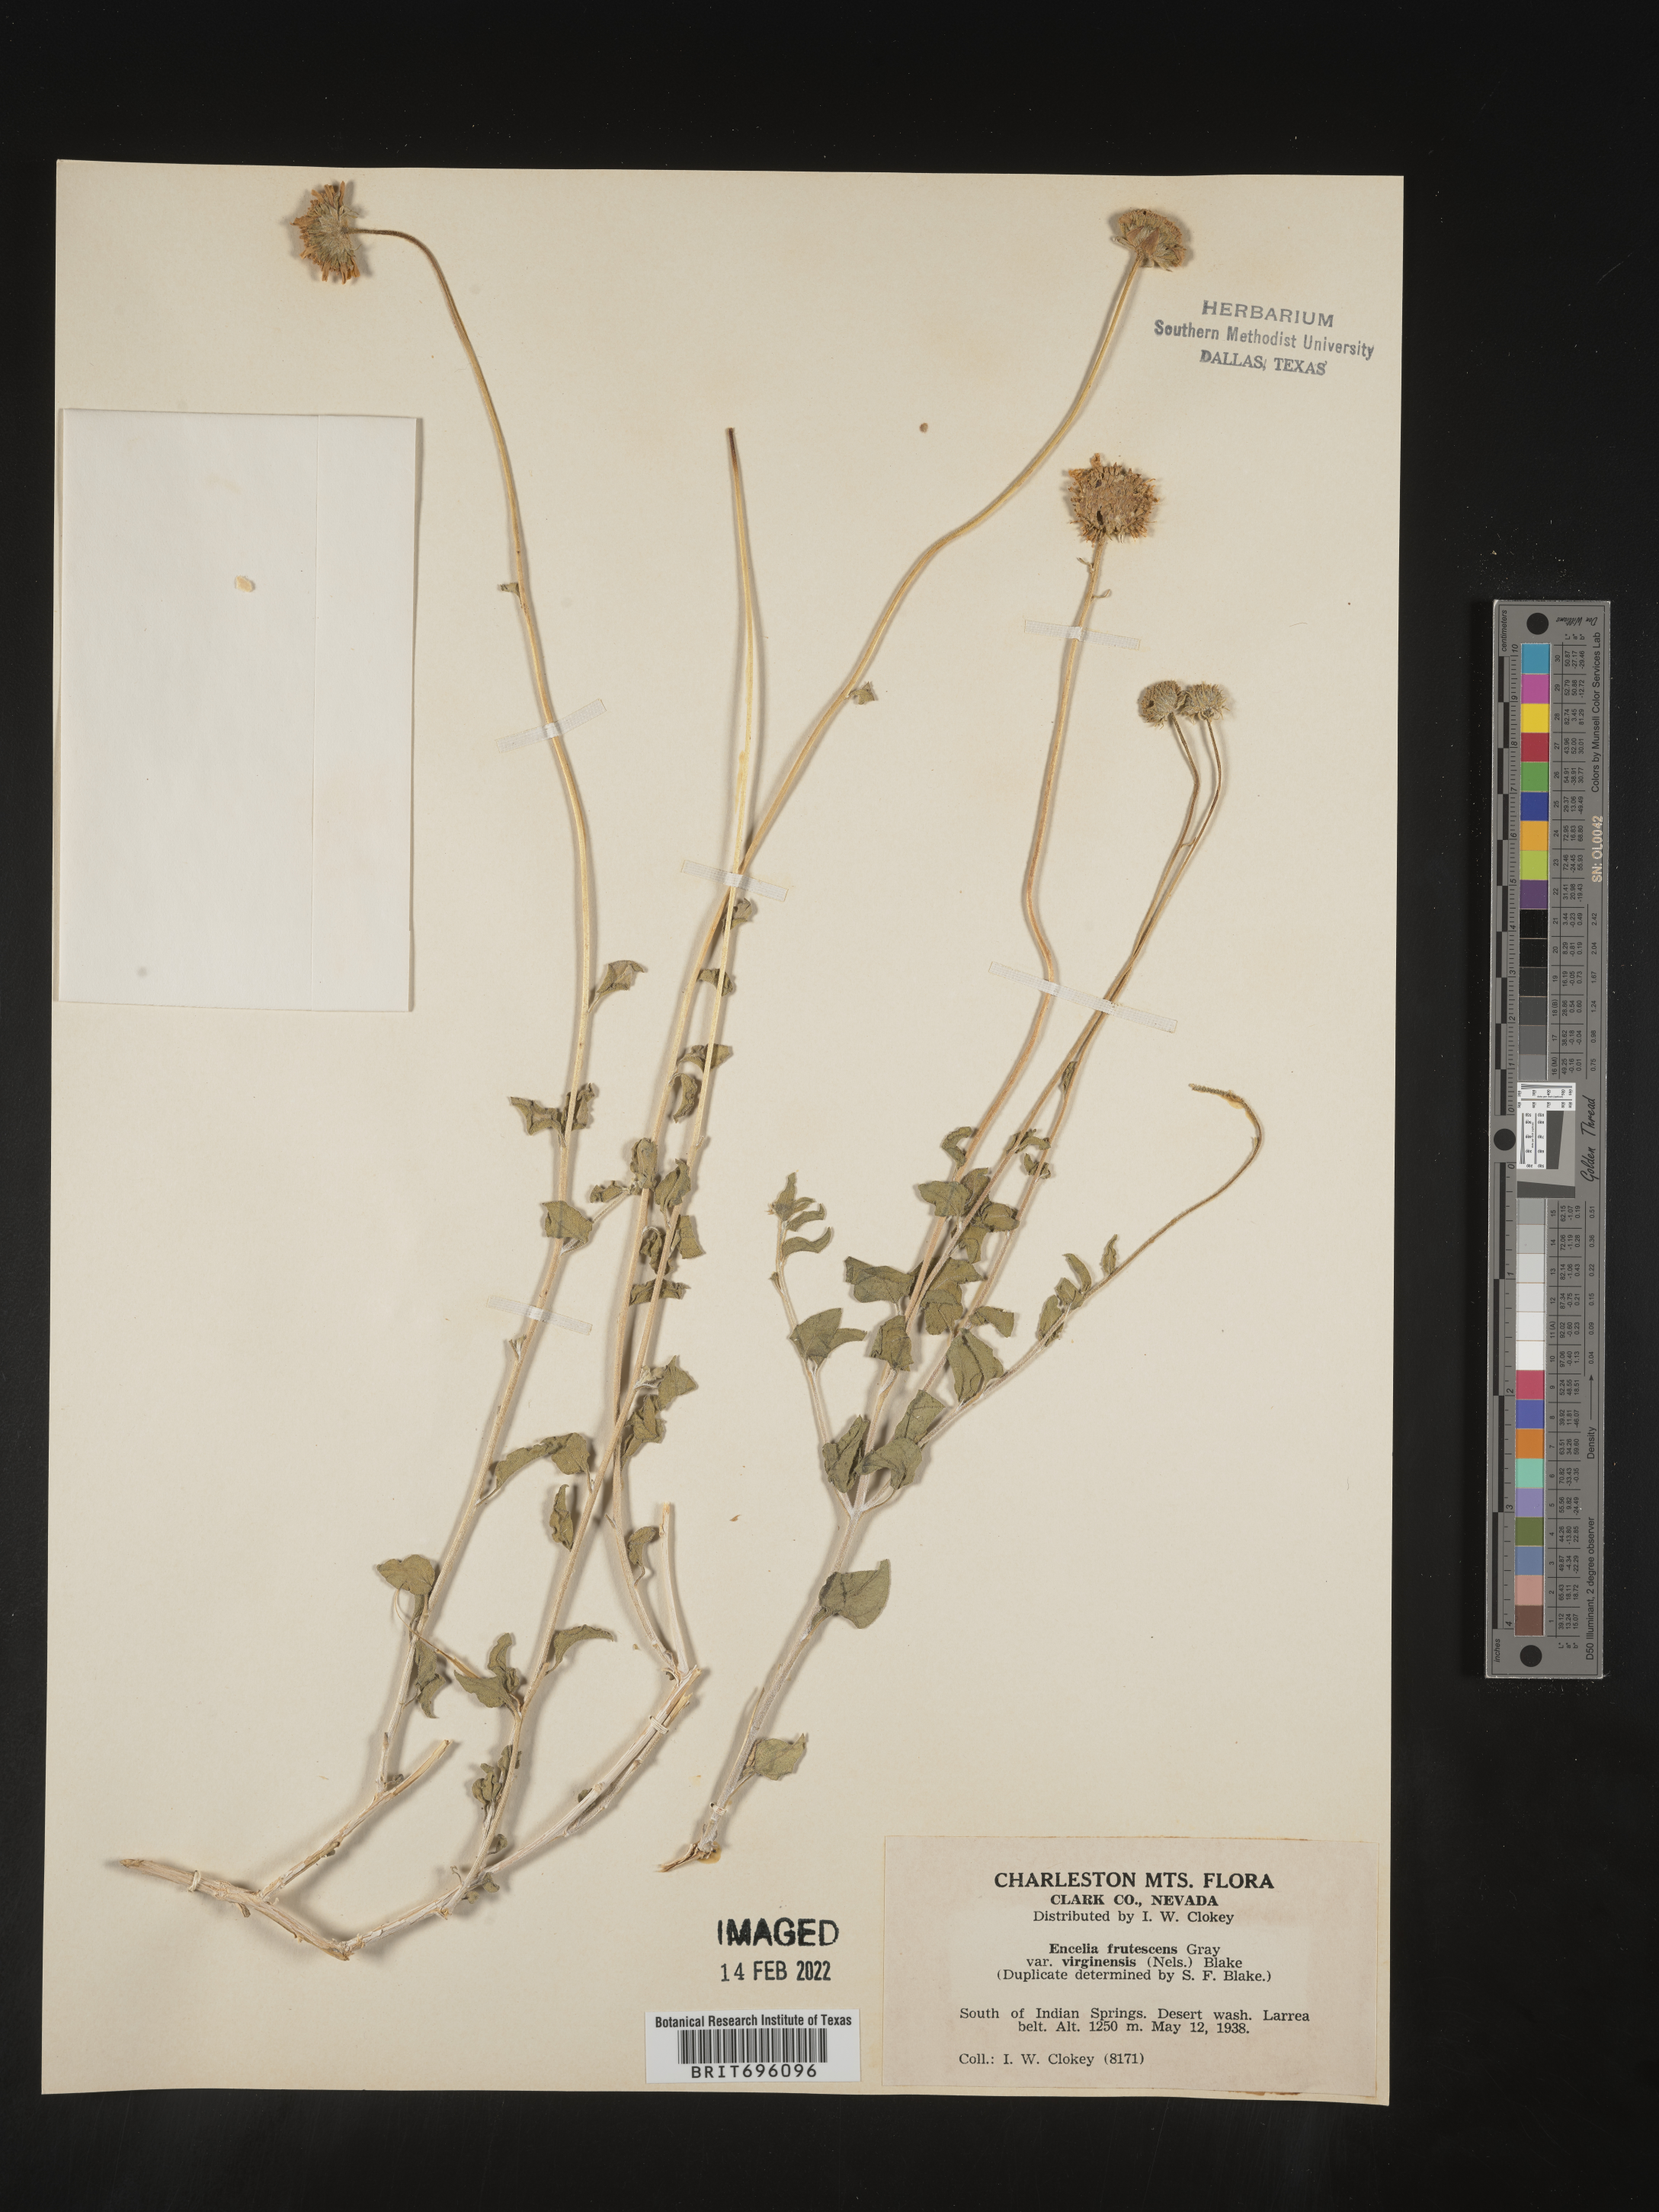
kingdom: Plantae
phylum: Tracheophyta
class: Magnoliopsida
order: Asterales
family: Asteraceae
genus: Encelia
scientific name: Encelia virginensis
